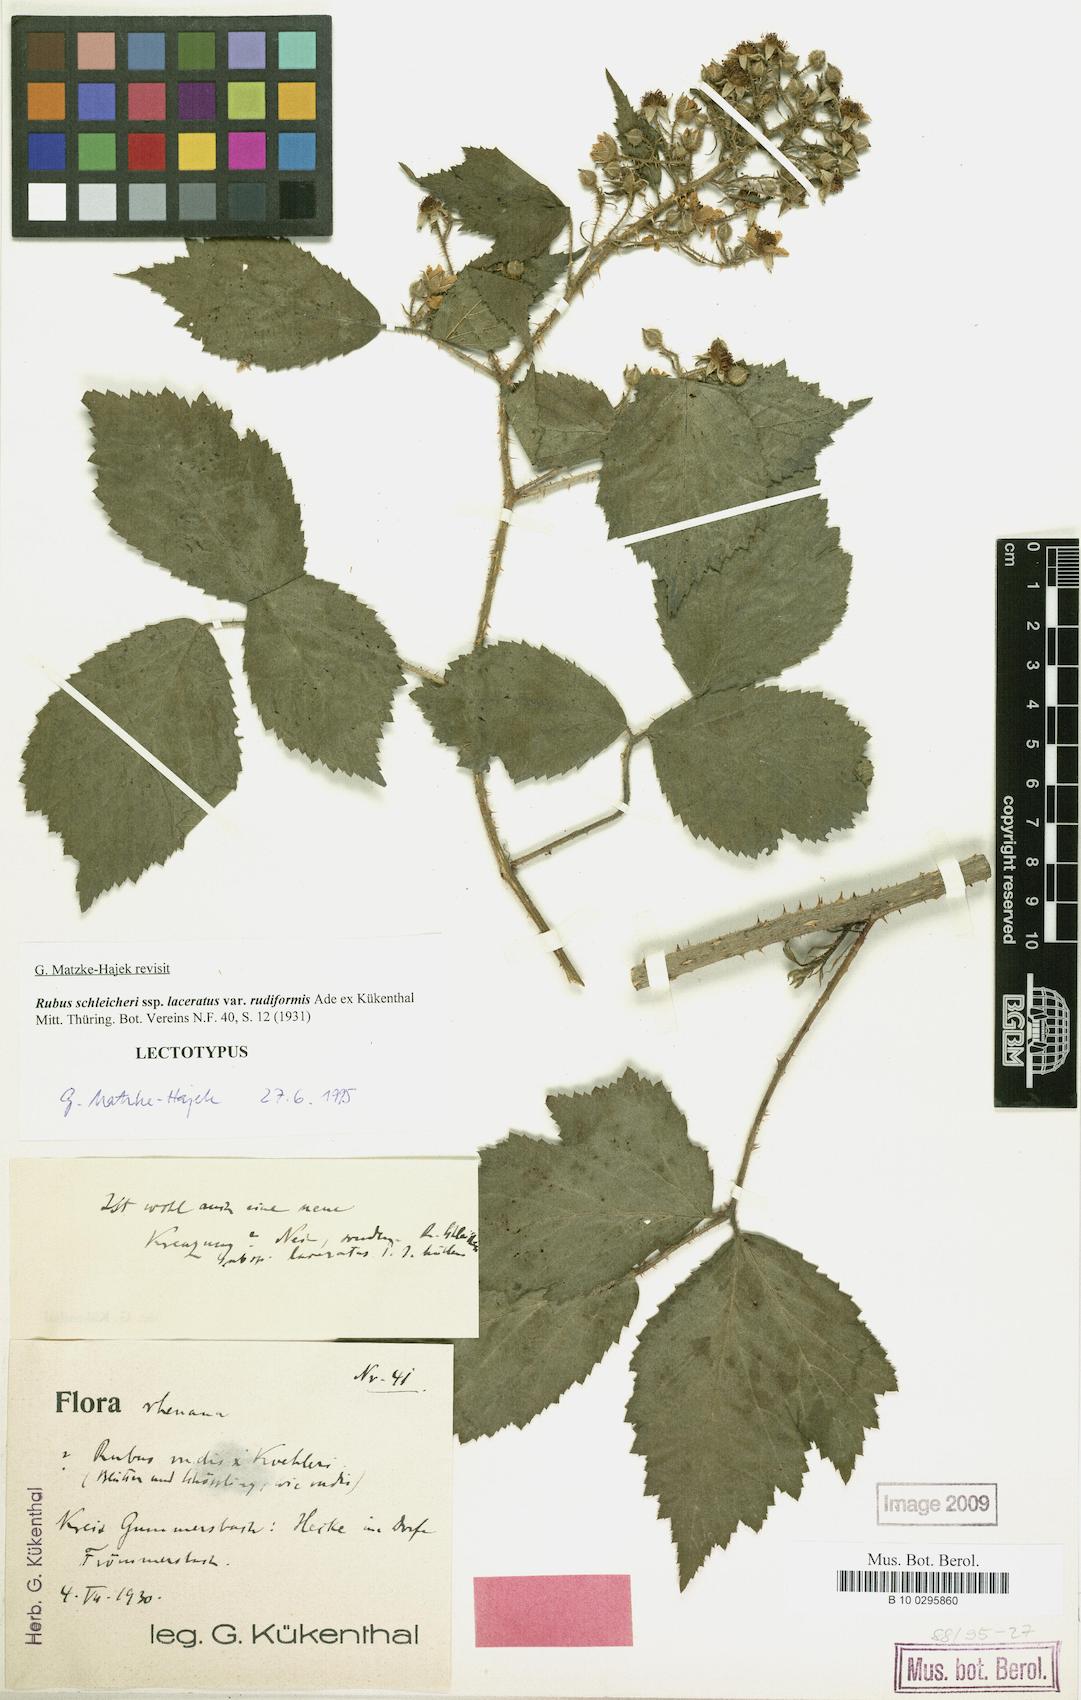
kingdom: Plantae
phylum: Tracheophyta
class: Magnoliopsida
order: Rosales
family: Rosaceae
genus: Rubus
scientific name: Rubus schleicheri
